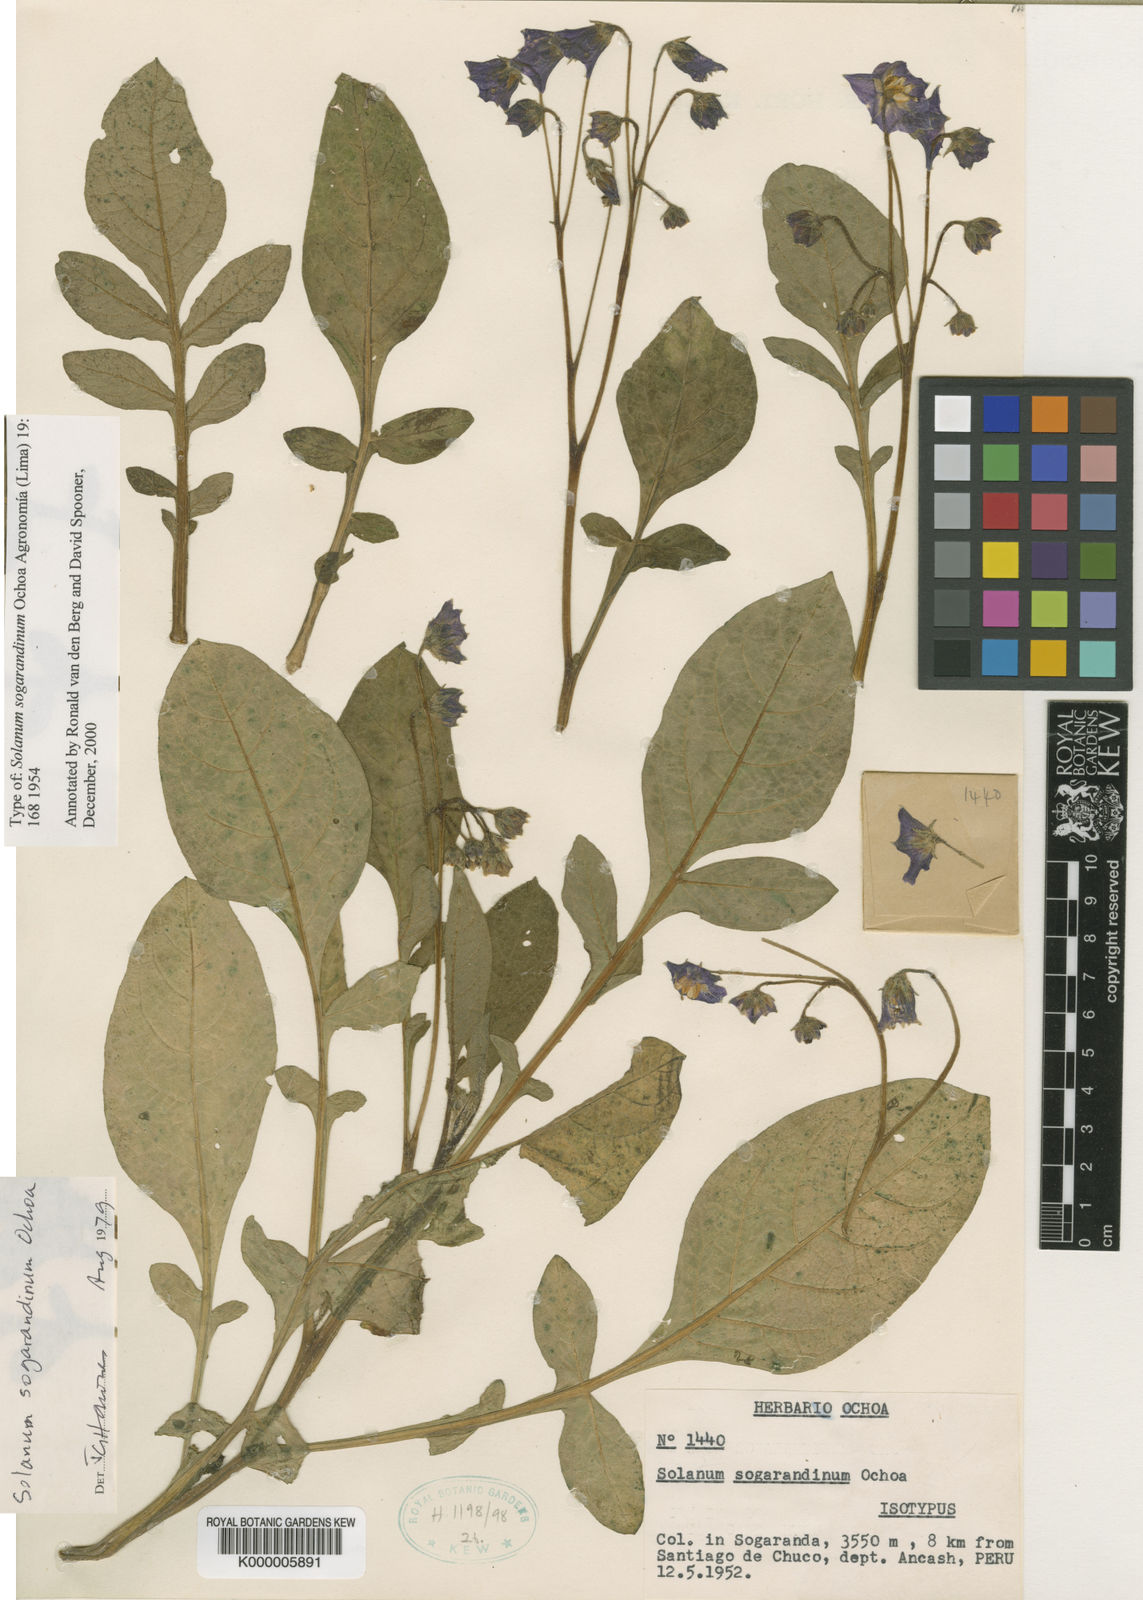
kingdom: Plantae
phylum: Tracheophyta
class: Magnoliopsida
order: Solanales
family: Solanaceae
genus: Solanum
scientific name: Solanum sogarandinum
